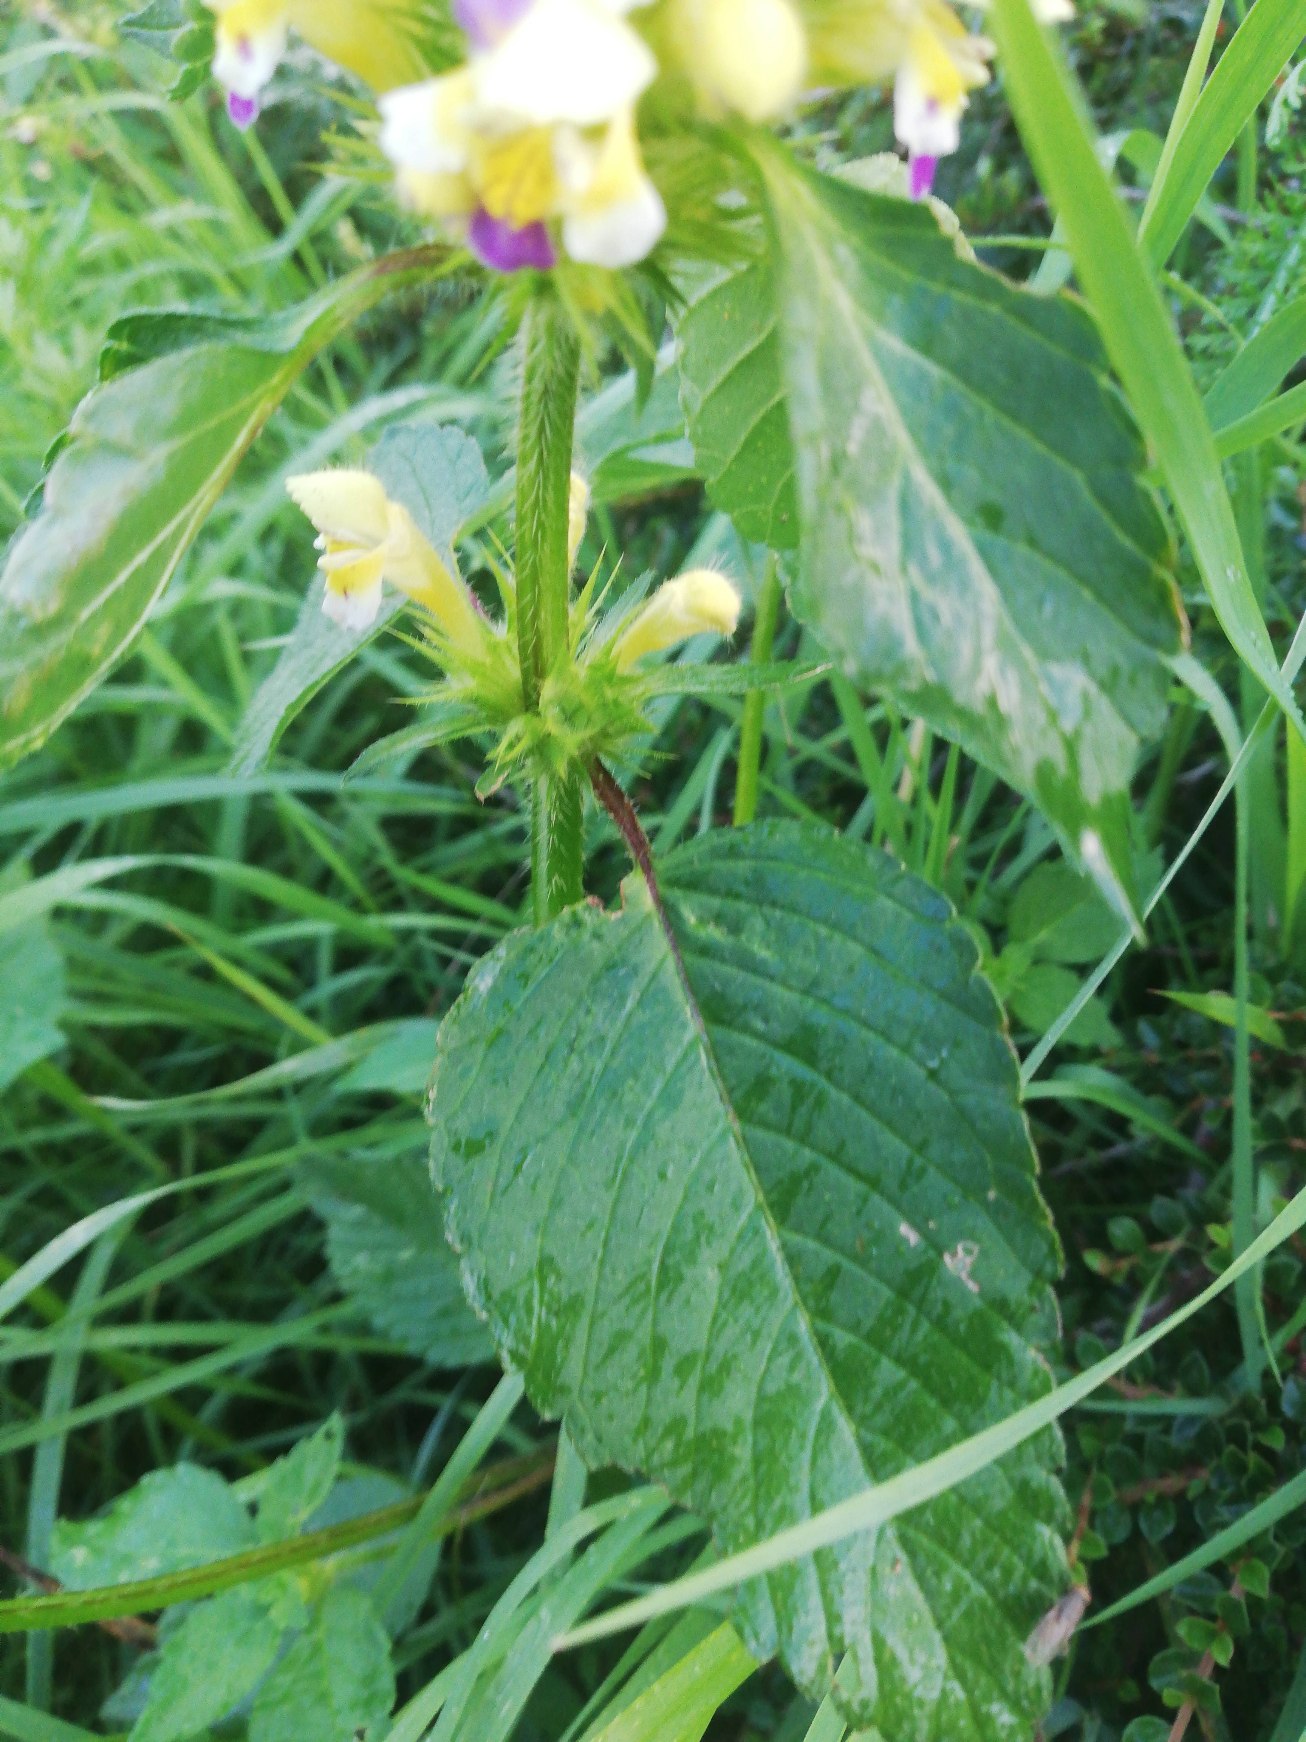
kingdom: Plantae
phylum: Tracheophyta
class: Magnoliopsida
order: Lamiales
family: Lamiaceae
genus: Galeopsis
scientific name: Galeopsis speciosa
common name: Hamp-hanekro
